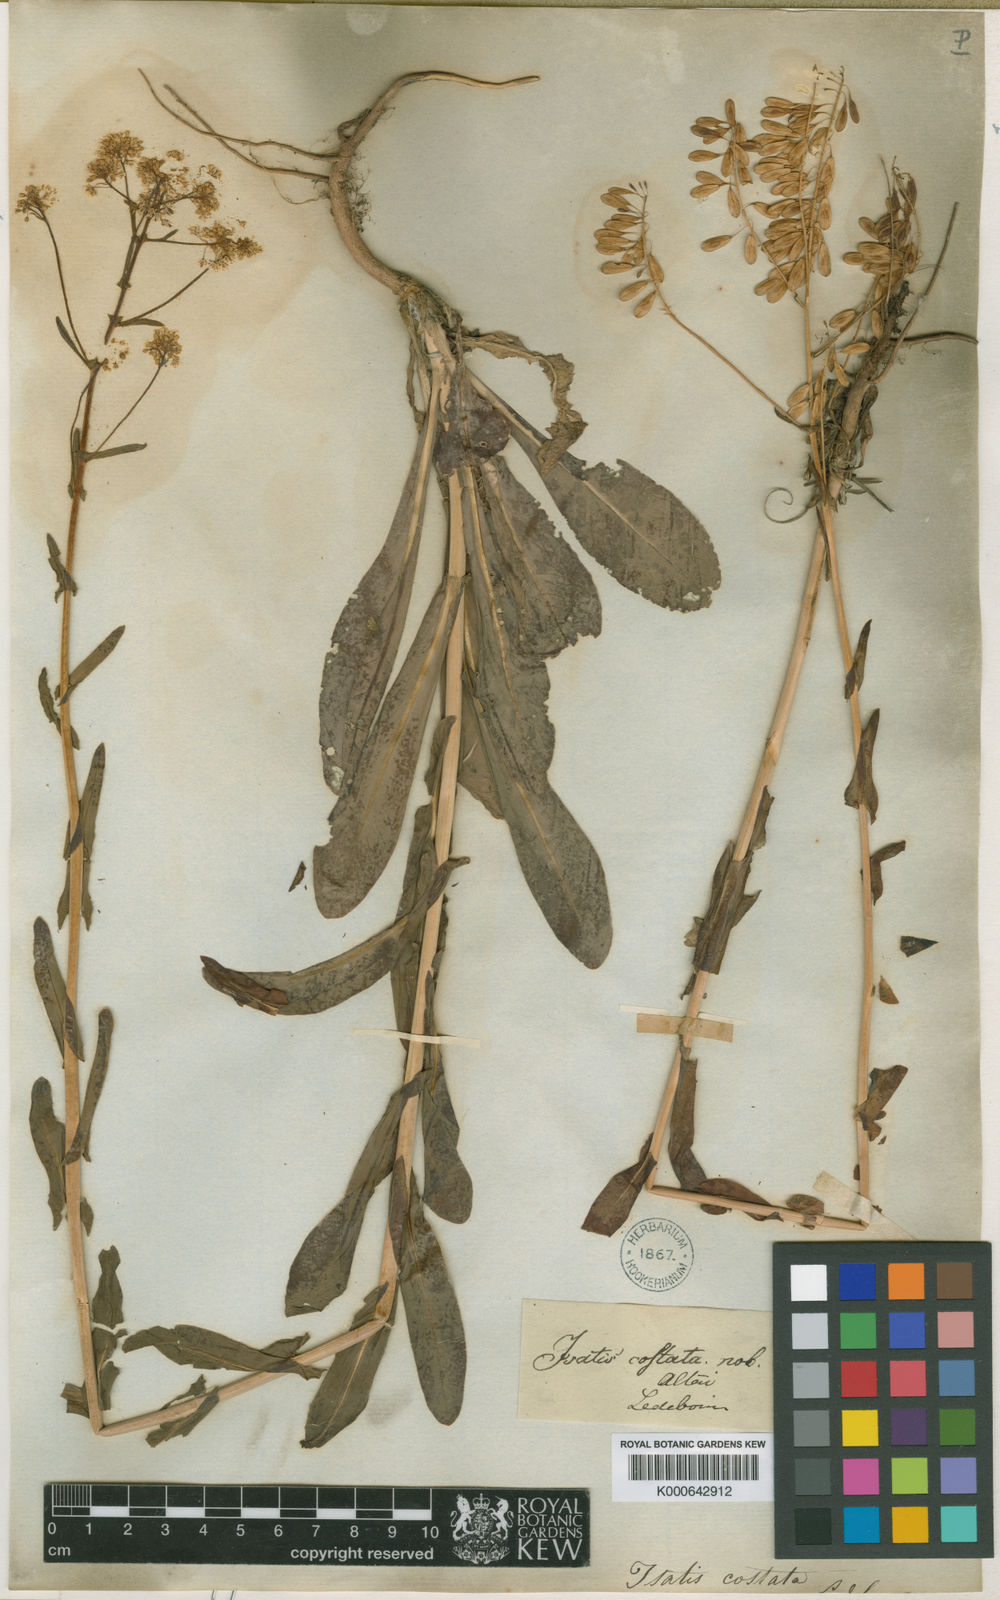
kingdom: Plantae
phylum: Tracheophyta
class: Magnoliopsida
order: Brassicales
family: Brassicaceae
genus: Isatis
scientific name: Isatis costata
